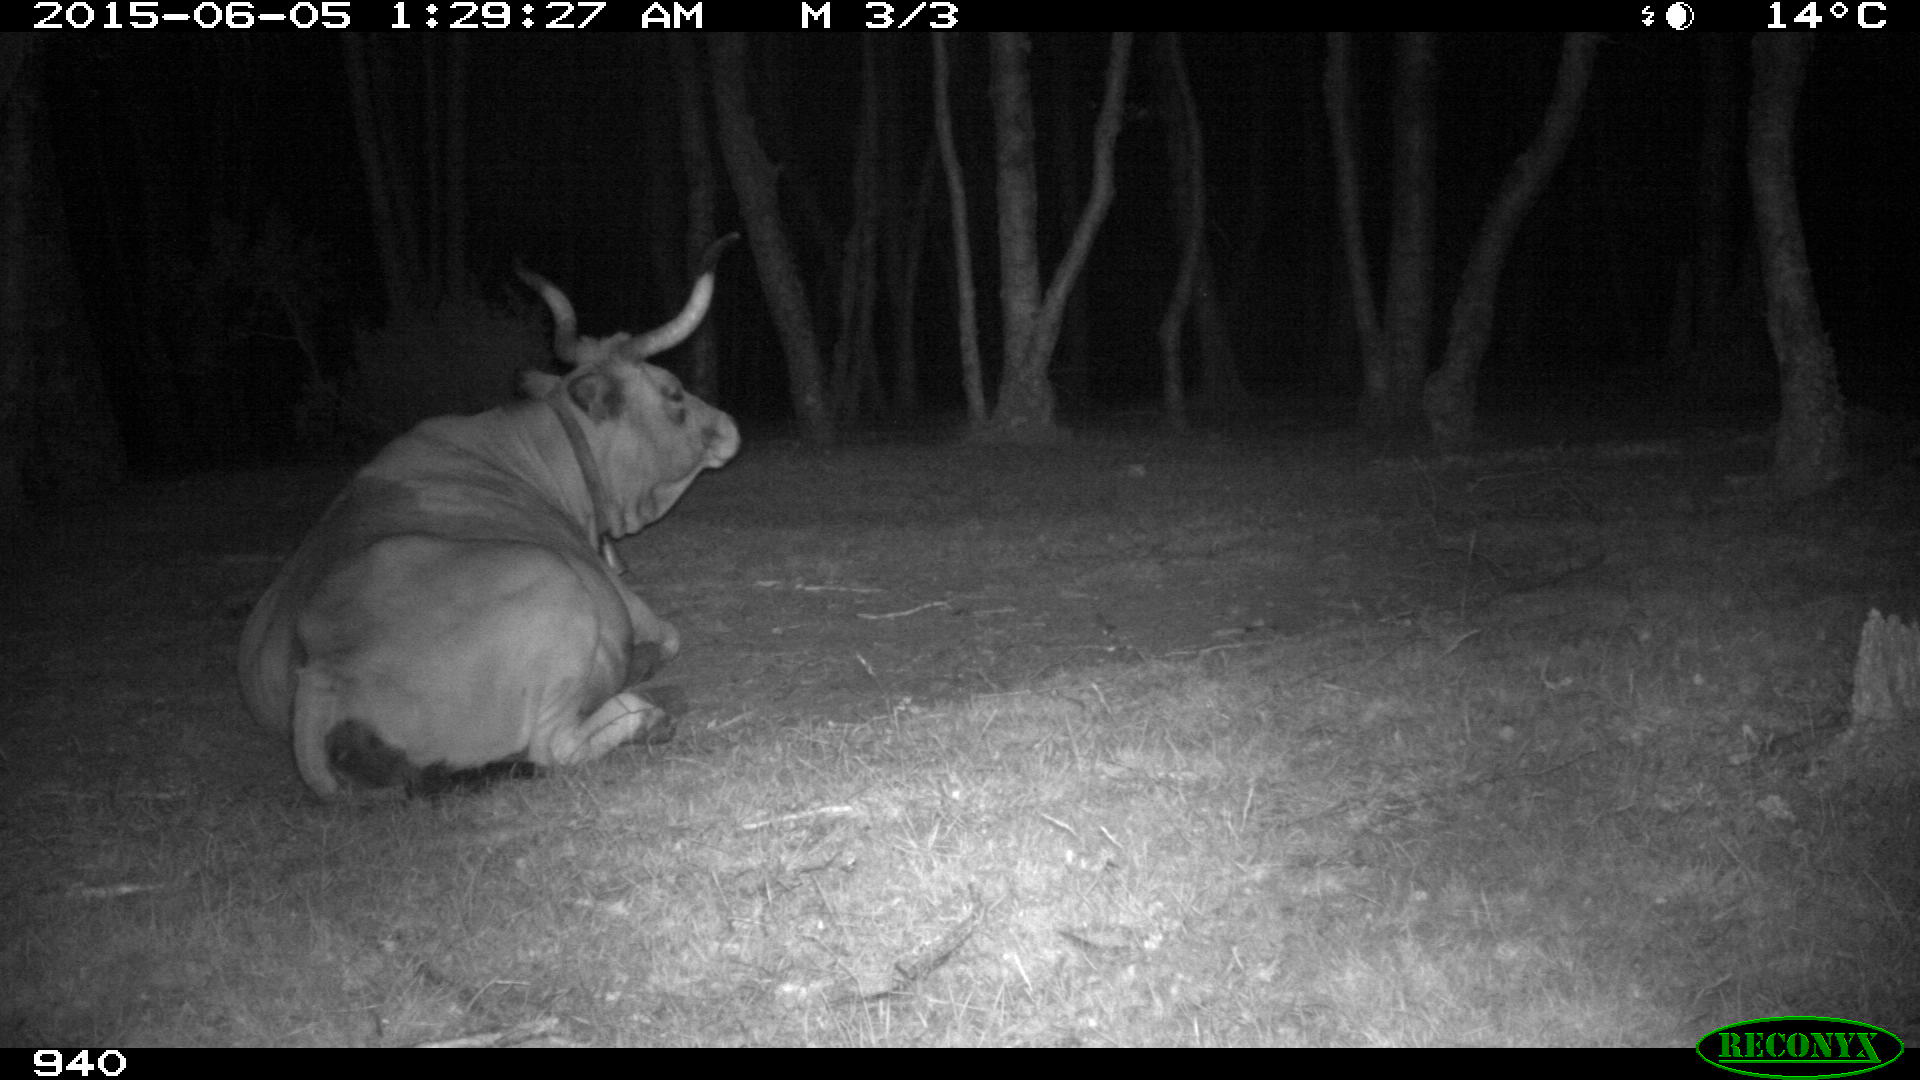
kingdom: Animalia
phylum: Chordata
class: Mammalia
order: Artiodactyla
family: Bovidae
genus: Bos
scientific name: Bos taurus
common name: Domesticated cattle
